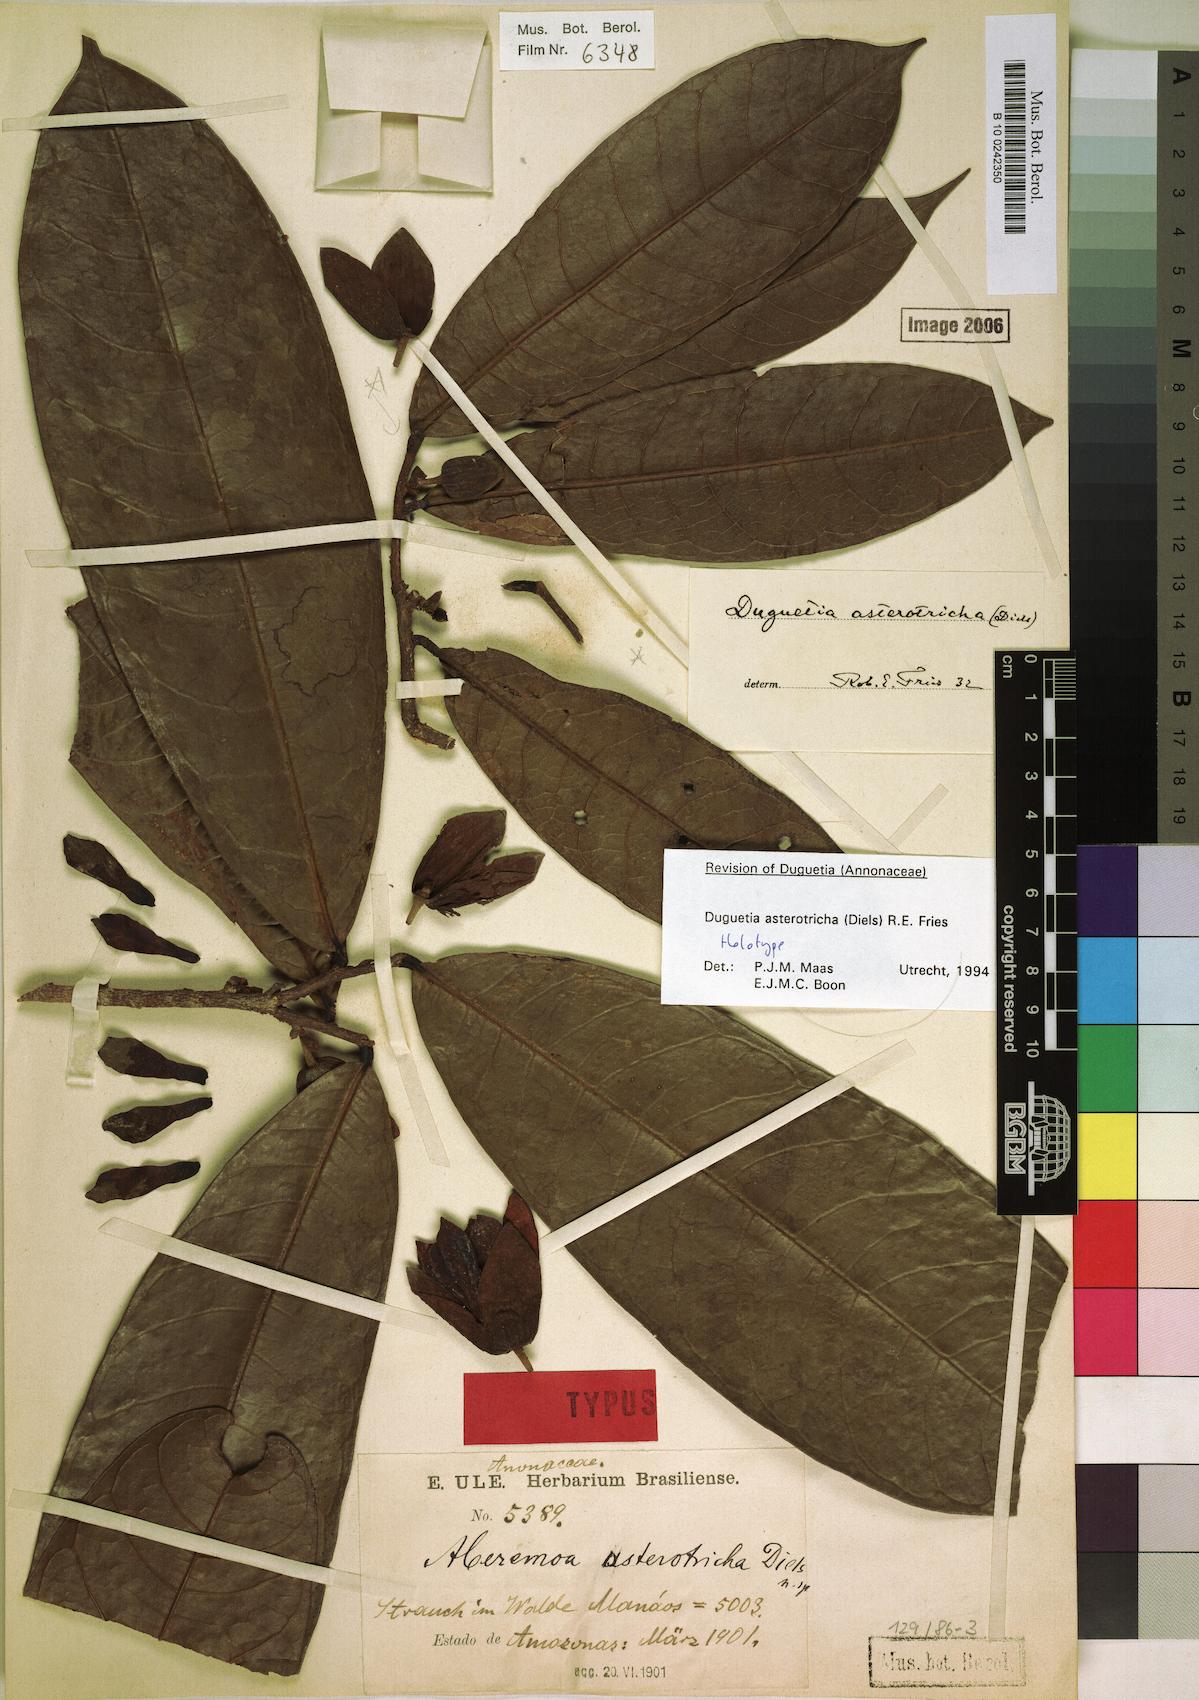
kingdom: Plantae
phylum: Tracheophyta
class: Magnoliopsida
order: Magnoliales
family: Annonaceae
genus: Duguetia
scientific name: Duguetia asterotricha
